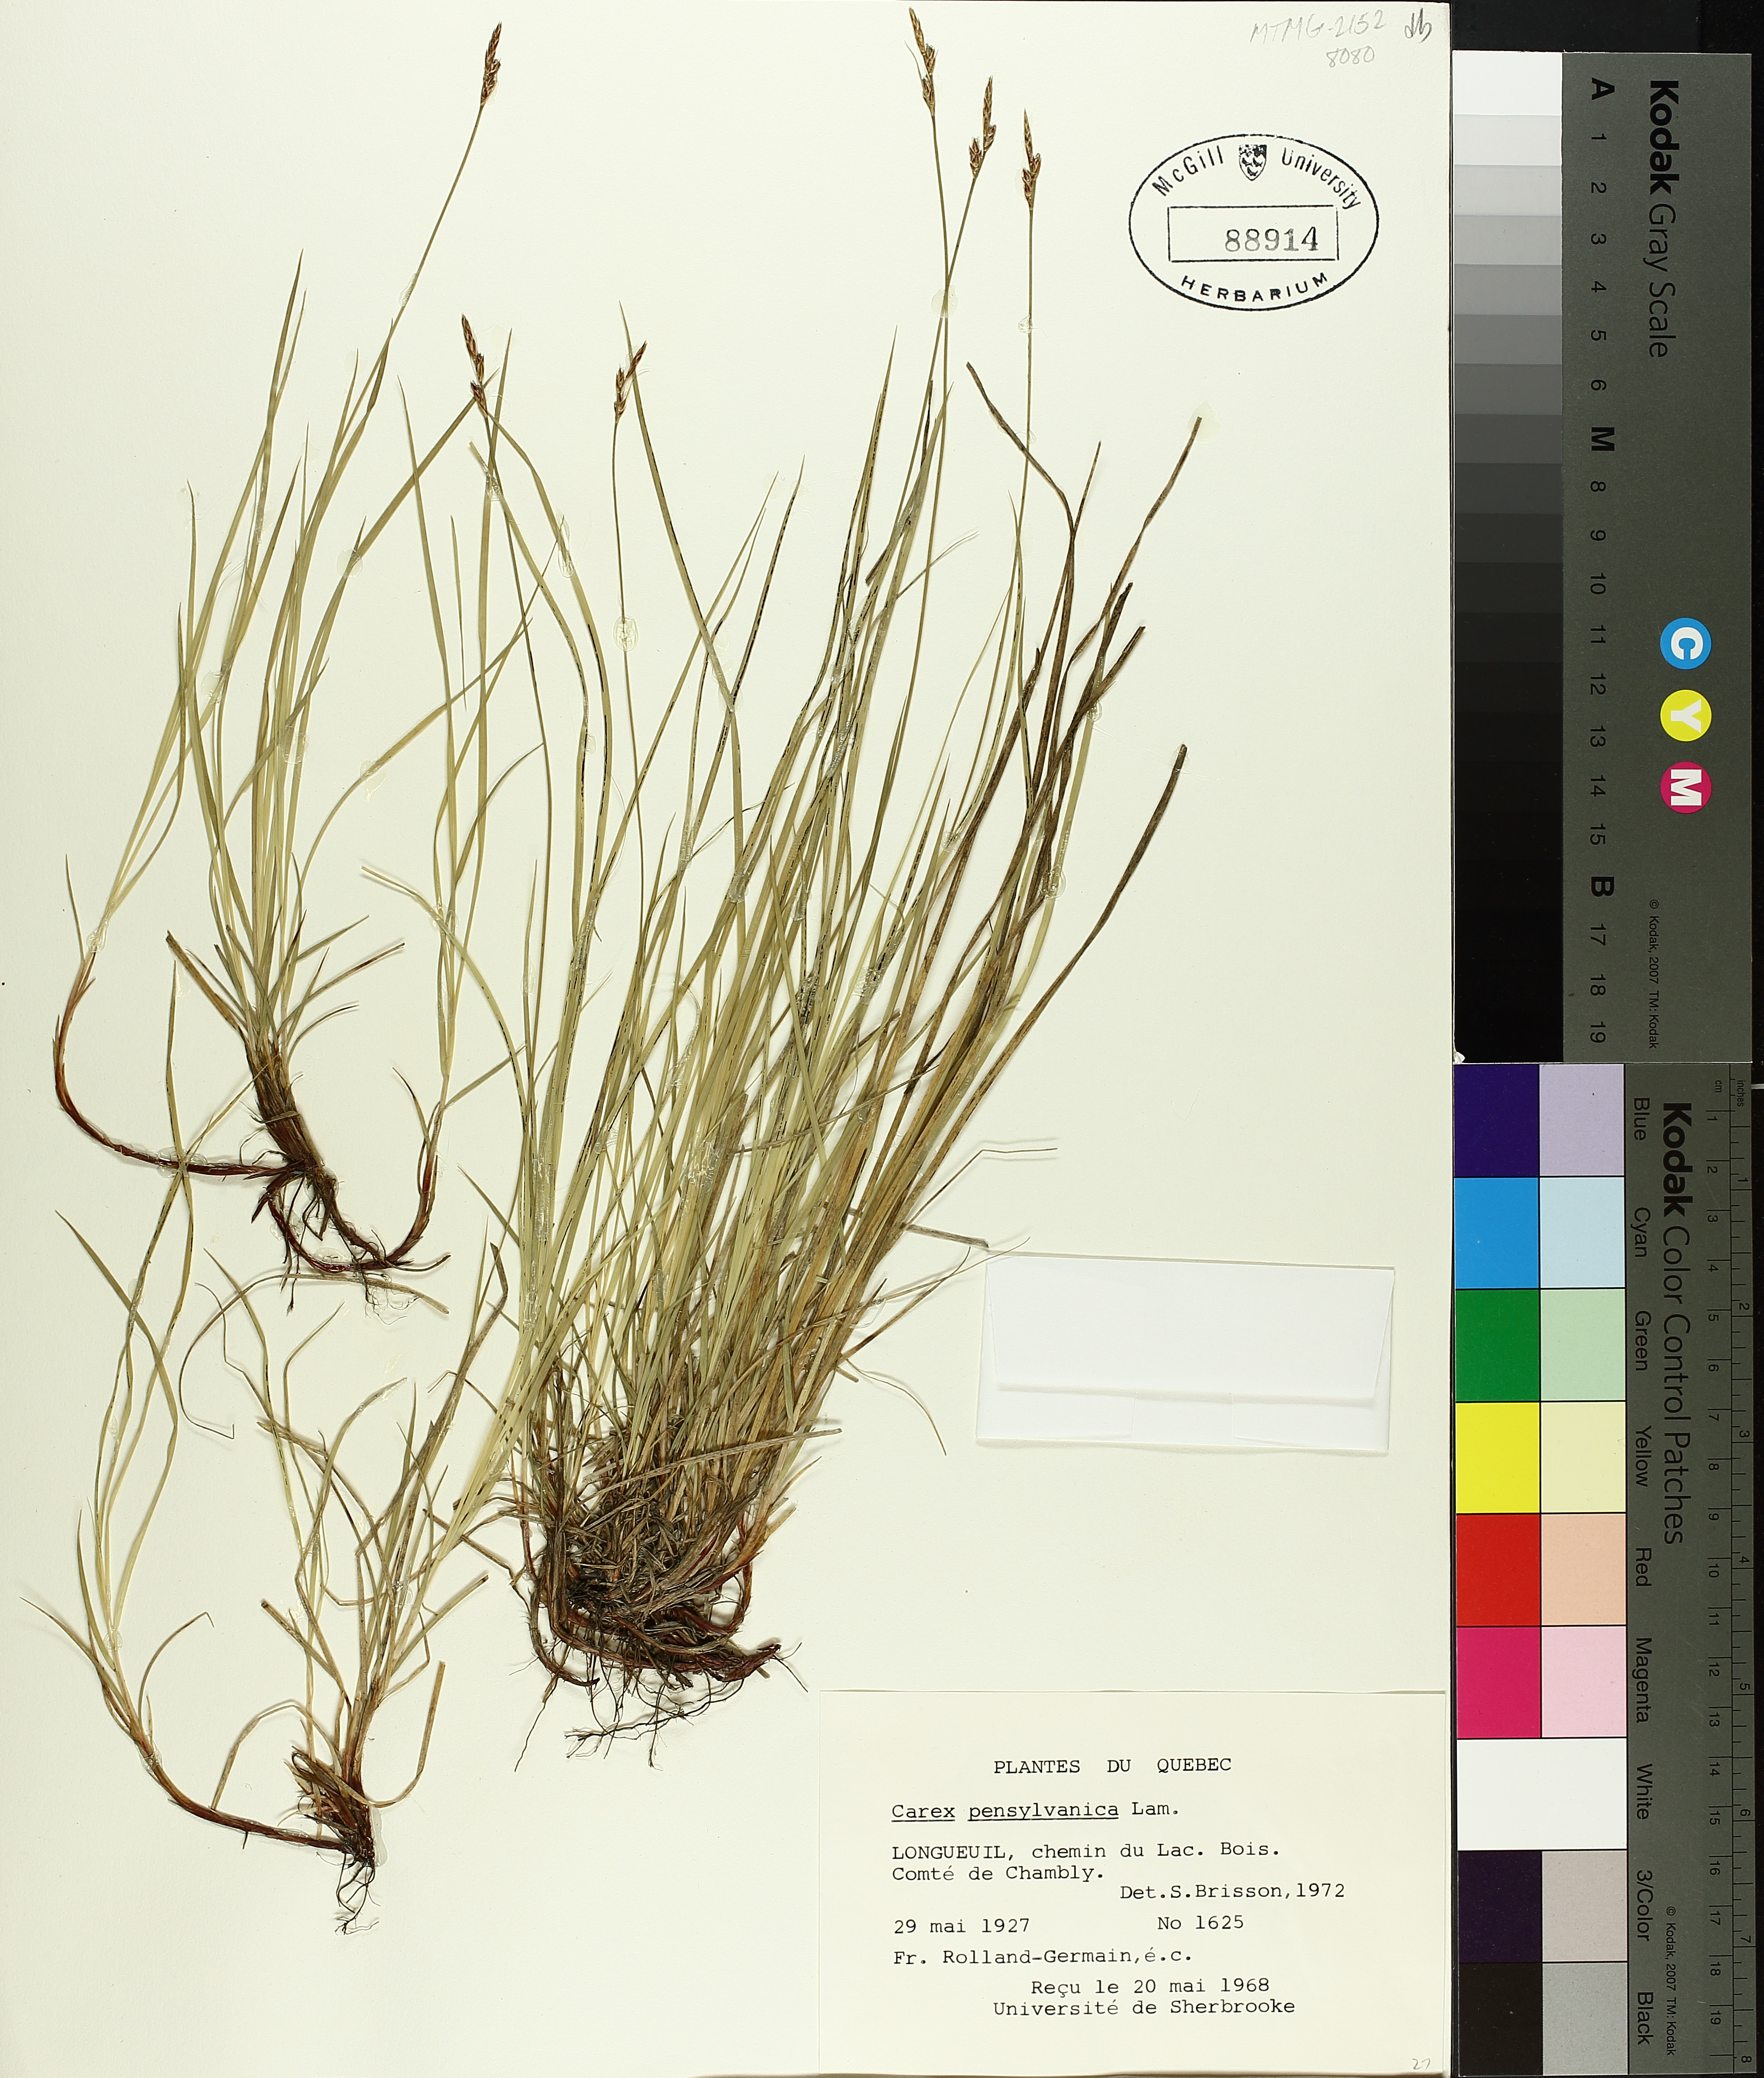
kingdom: Plantae
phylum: Tracheophyta
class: Liliopsida
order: Poales
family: Cyperaceae
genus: Carex
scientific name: Carex pensylvanica
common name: Common oak sedge
